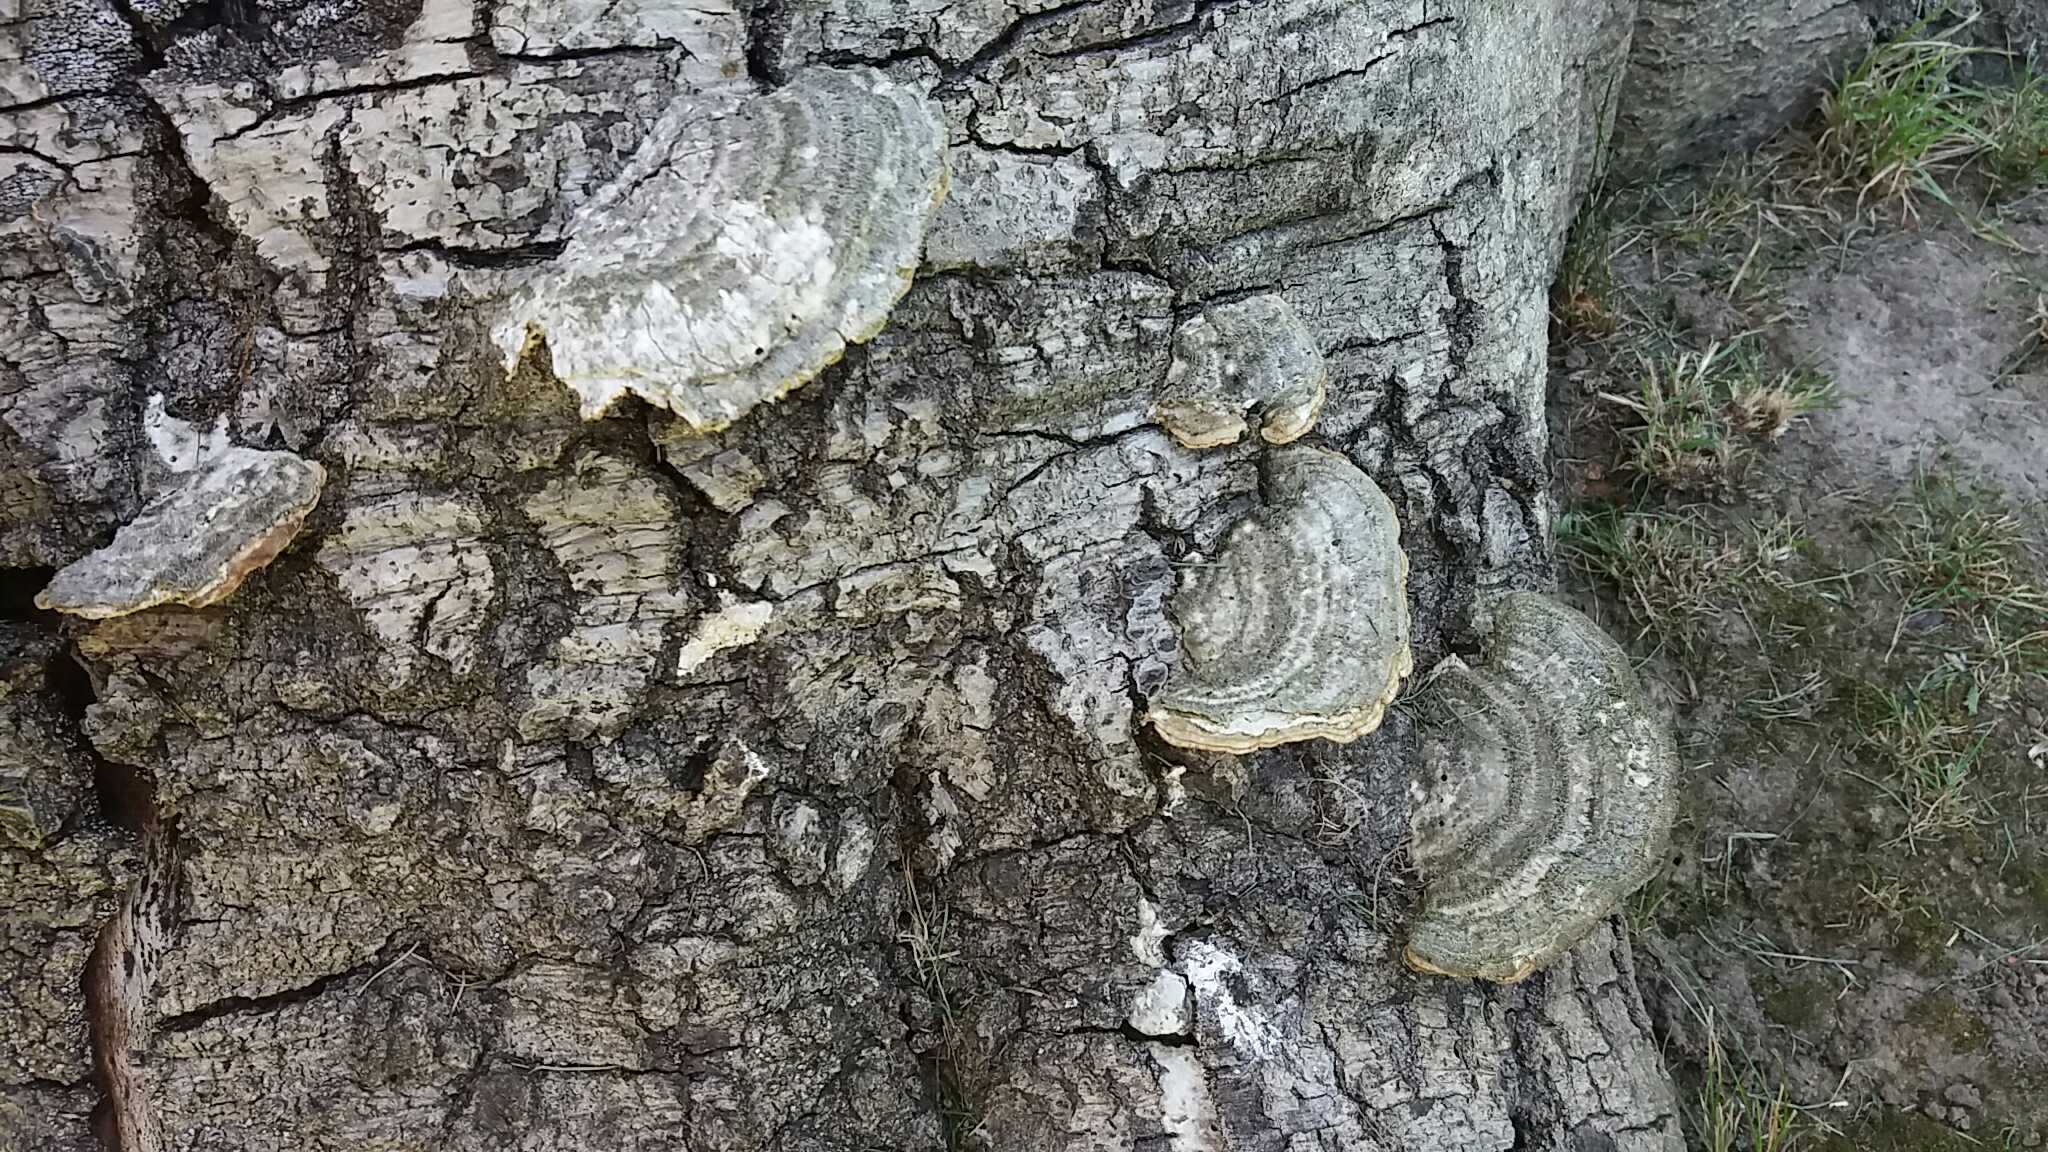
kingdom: Fungi
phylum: Basidiomycota
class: Agaricomycetes
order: Polyporales
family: Polyporaceae
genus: Trametes
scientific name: Trametes hirsuta
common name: håret læderporesvamp
